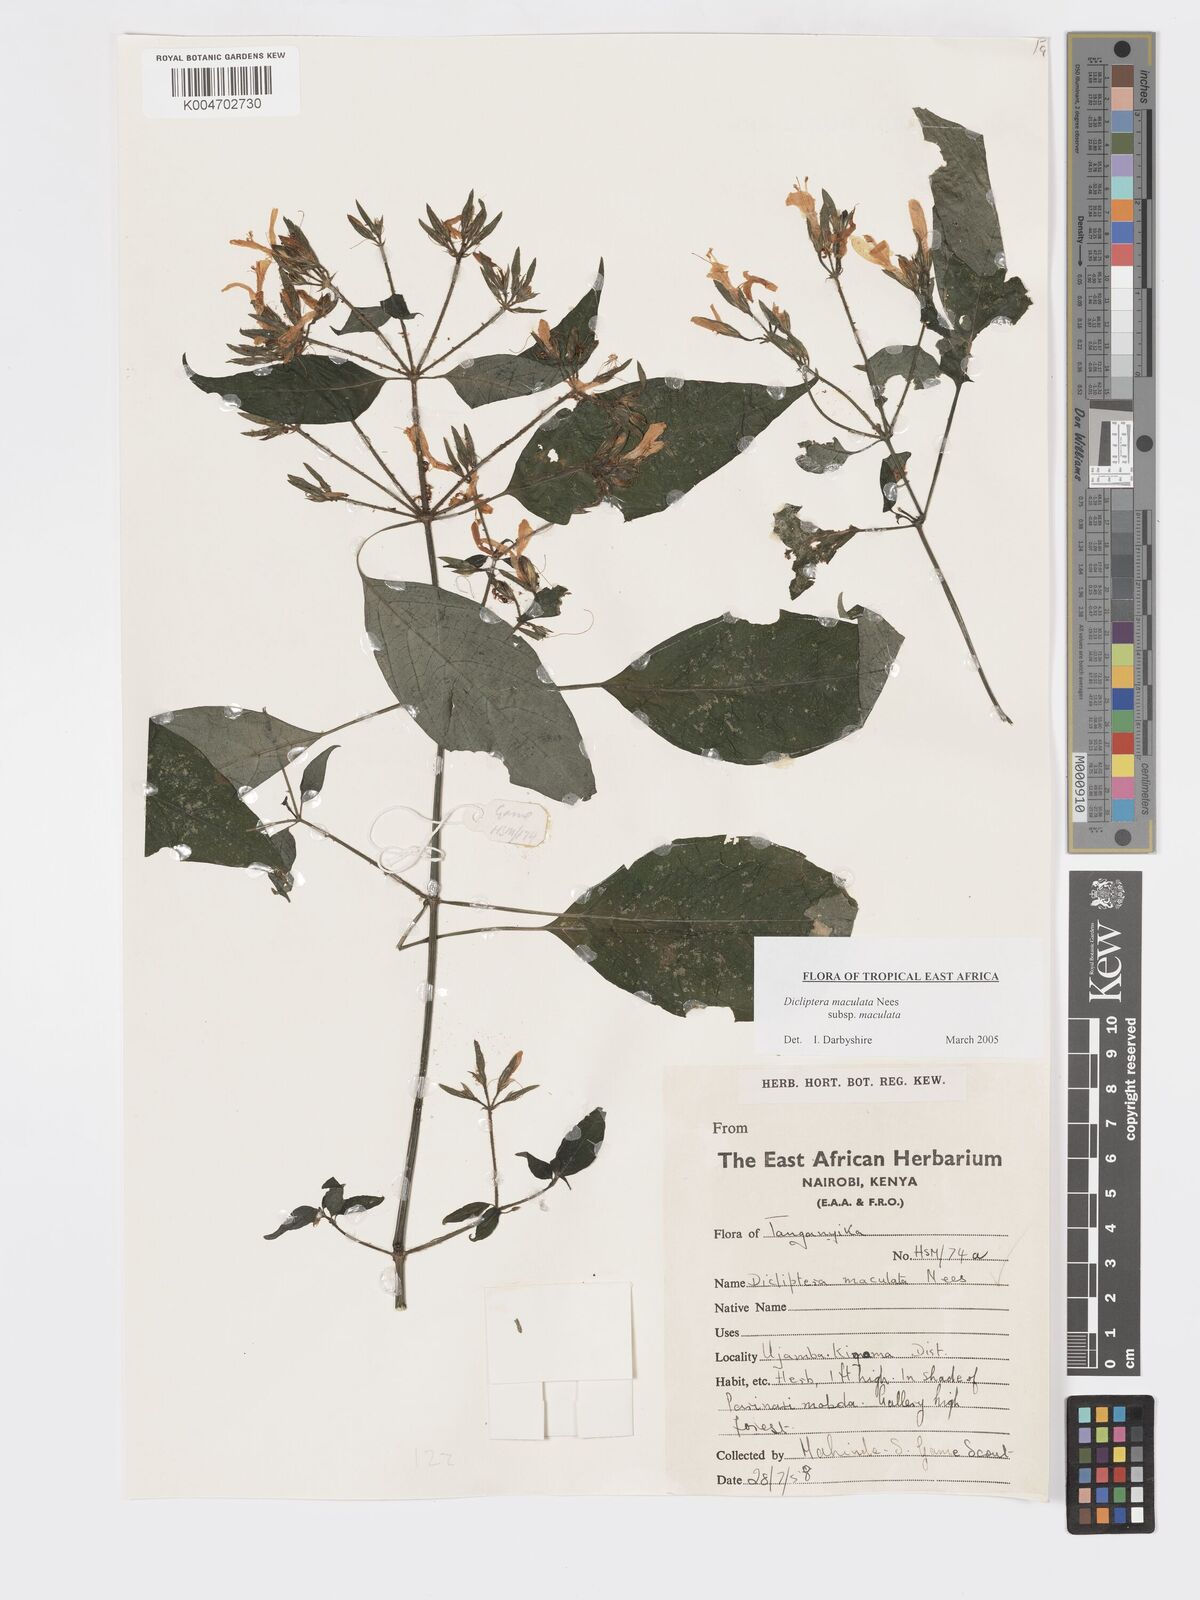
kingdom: Plantae
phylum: Tracheophyta
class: Magnoliopsida
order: Lamiales
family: Acanthaceae
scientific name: Acanthaceae
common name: Acanthaceae
